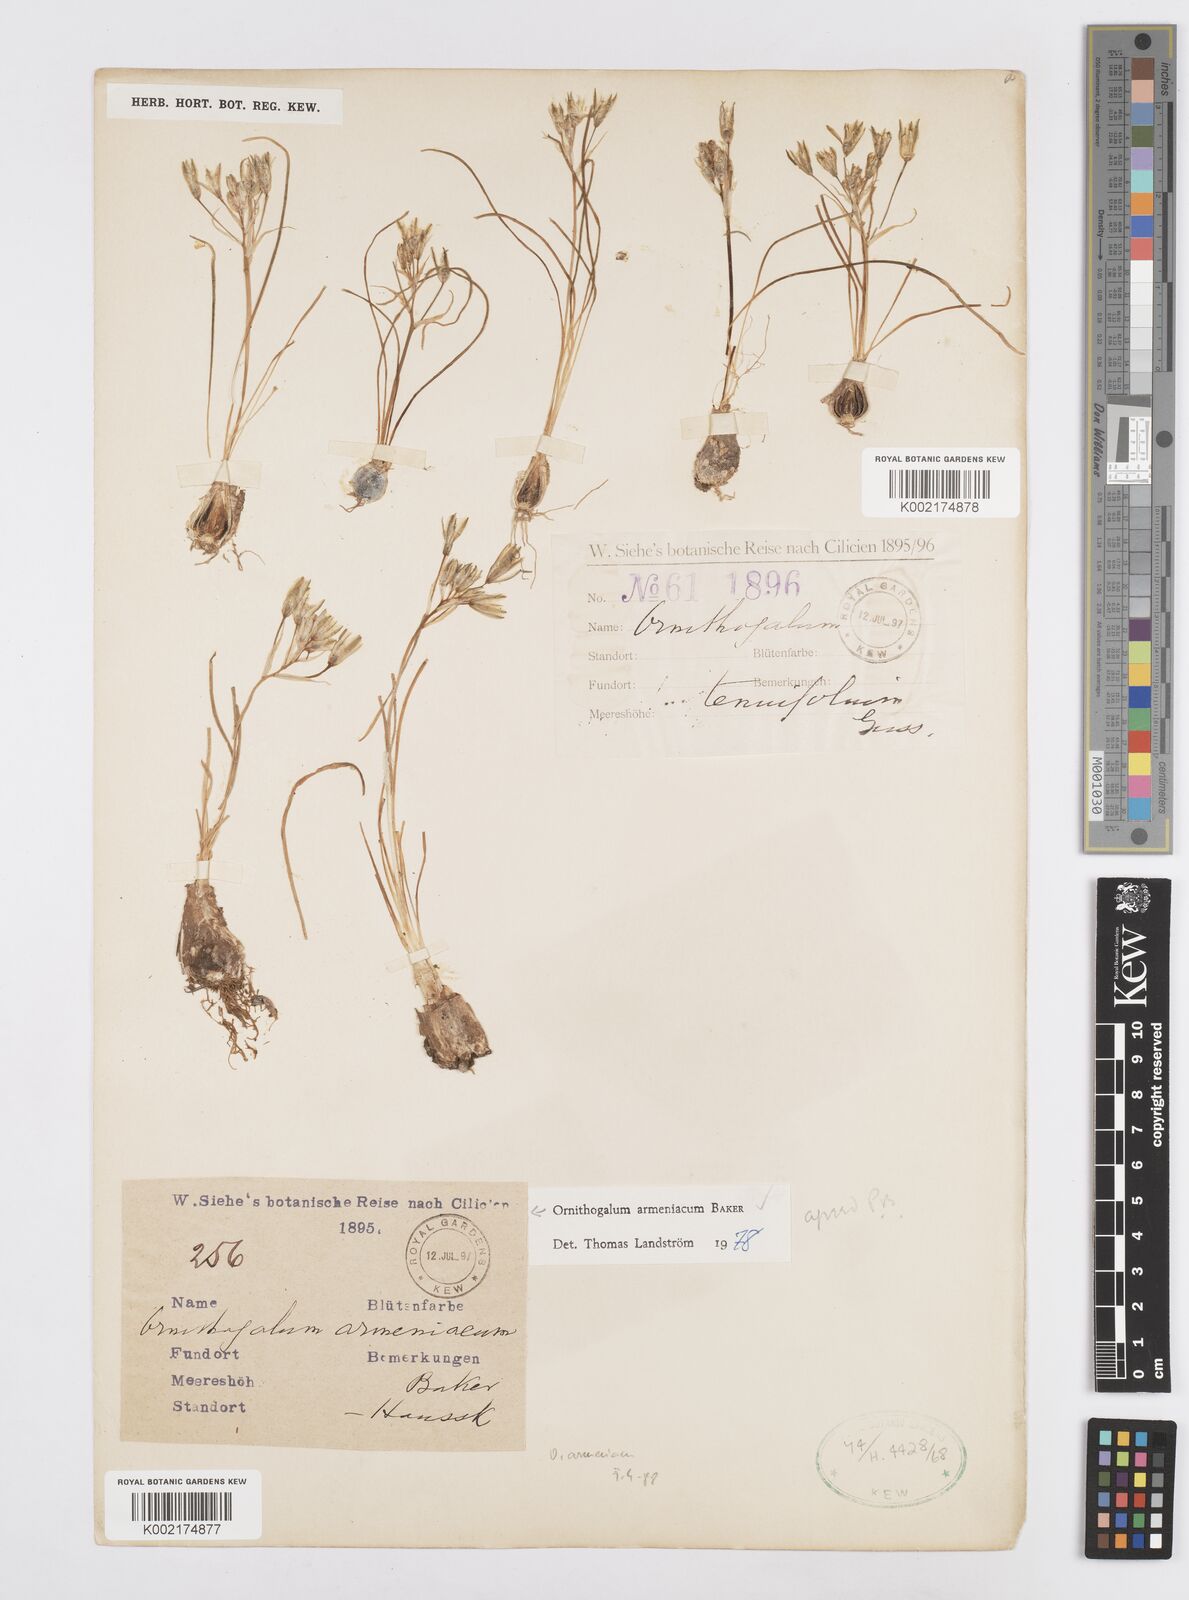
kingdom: Plantae
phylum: Tracheophyta
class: Liliopsida
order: Asparagales
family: Asparagaceae
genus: Ornithogalum
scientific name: Ornithogalum armeniacum
